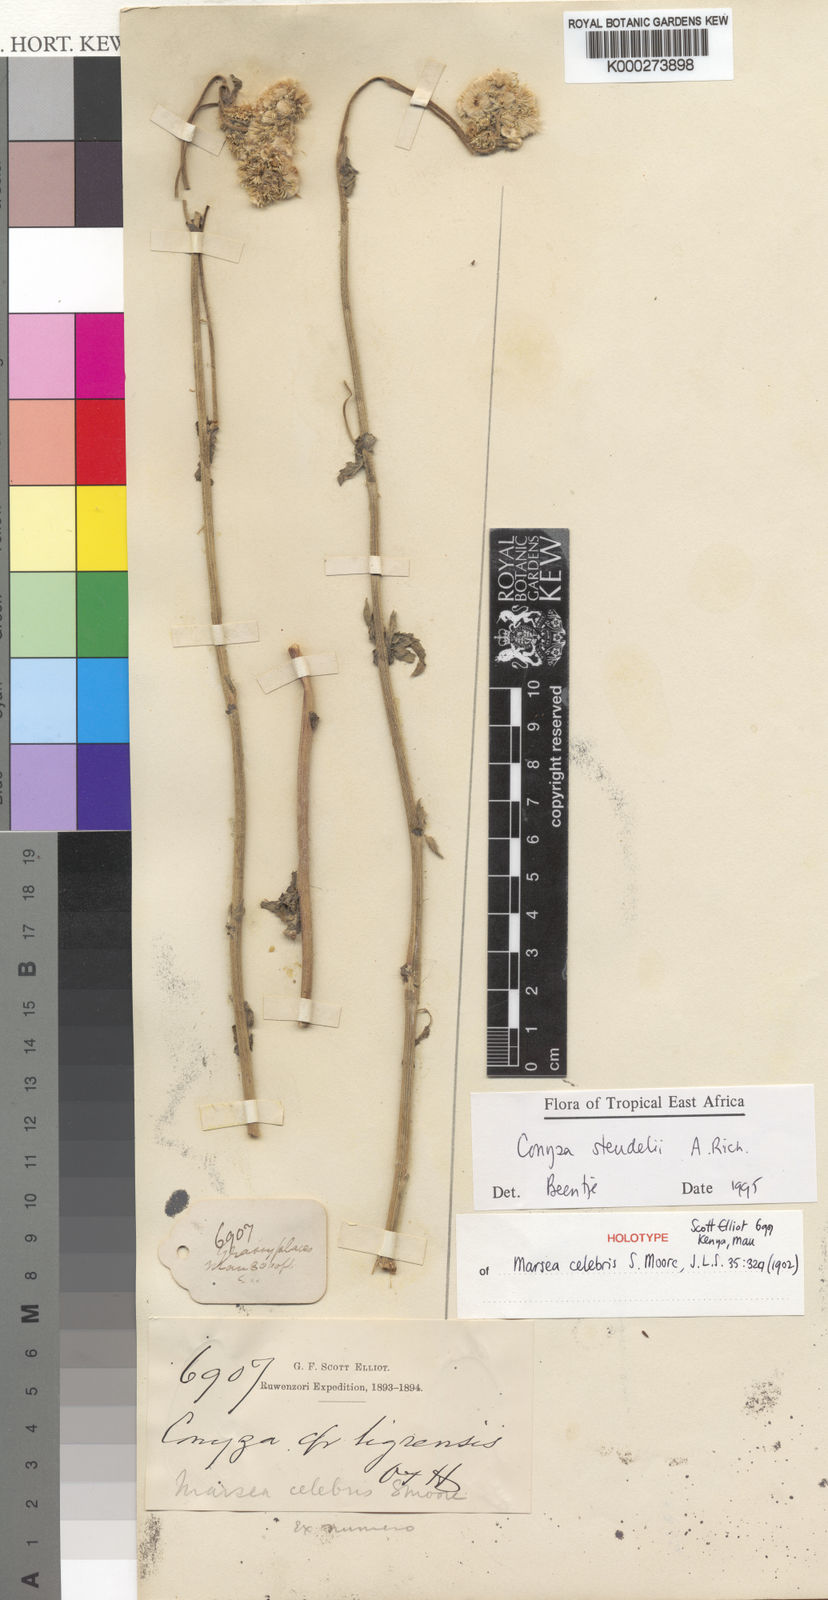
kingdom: Plantae
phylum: Tracheophyta
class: Magnoliopsida
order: Asterales
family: Asteraceae
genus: Conyza
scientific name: Conyza steudelii
